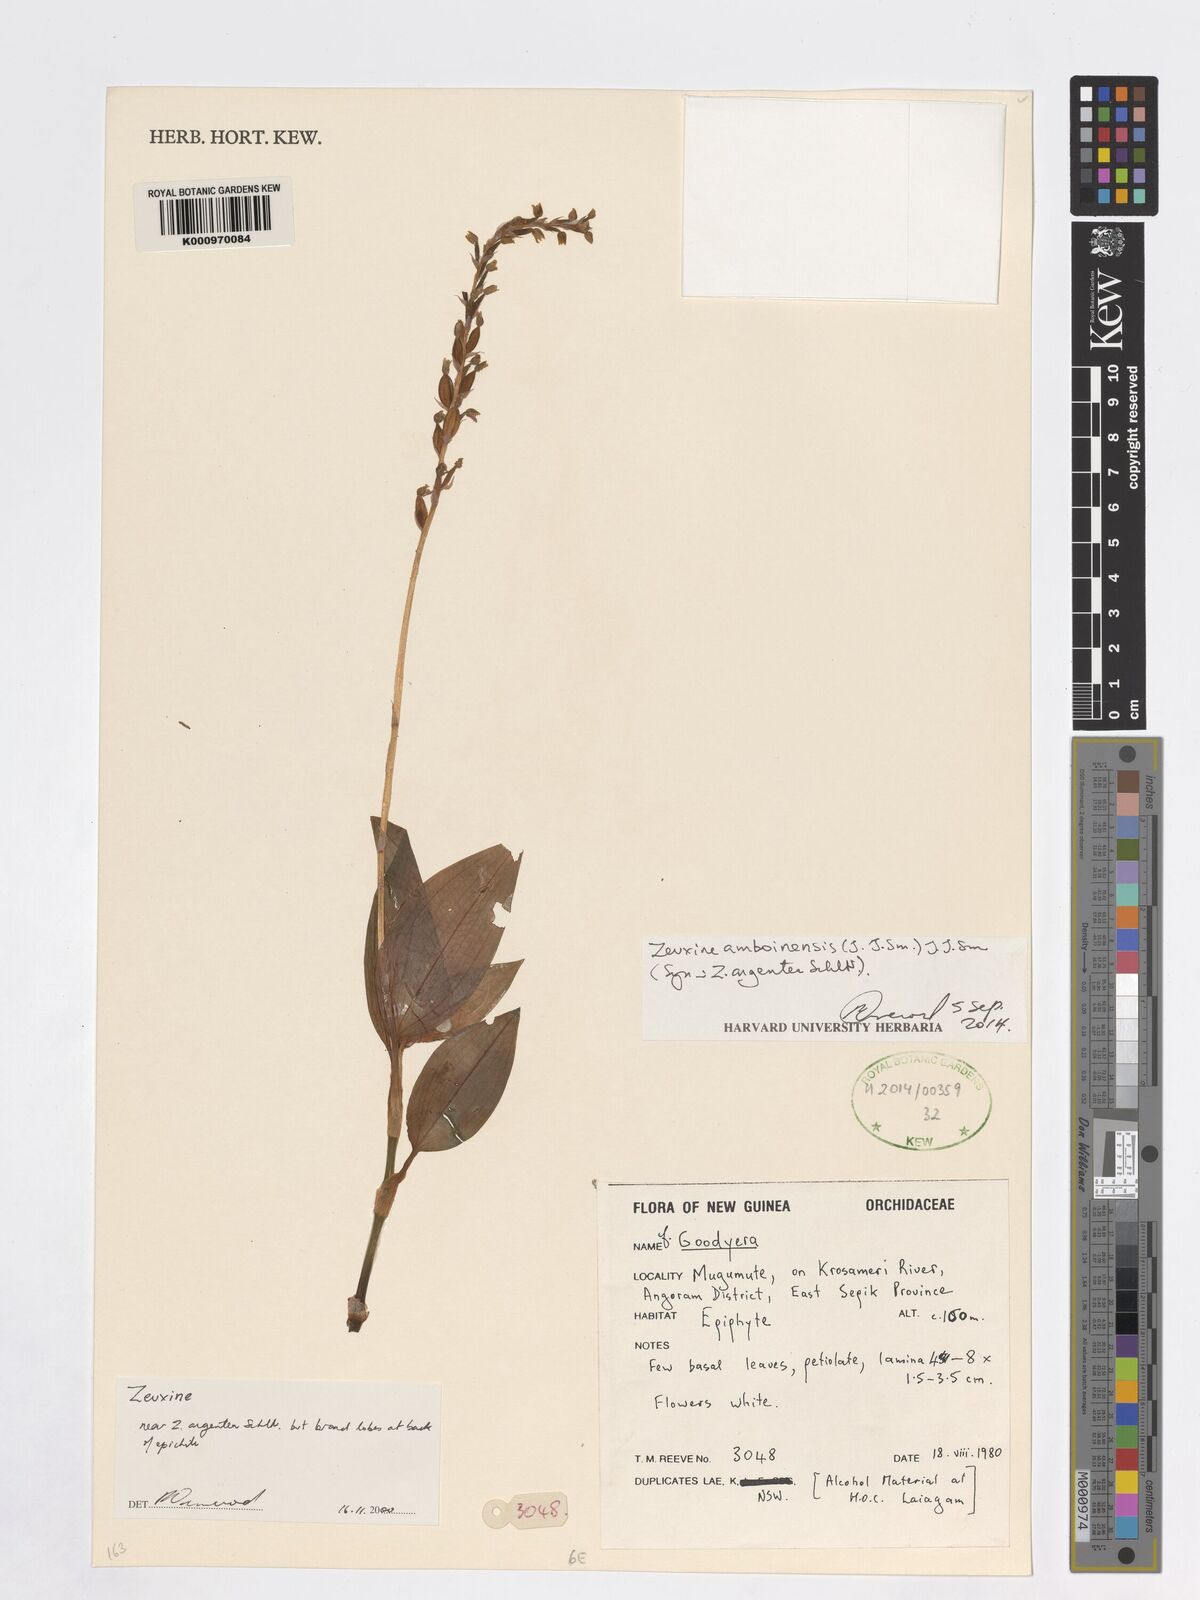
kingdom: Plantae
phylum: Tracheophyta
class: Liliopsida
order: Asparagales
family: Orchidaceae
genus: Zeuxine
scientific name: Zeuxine amboinensis
